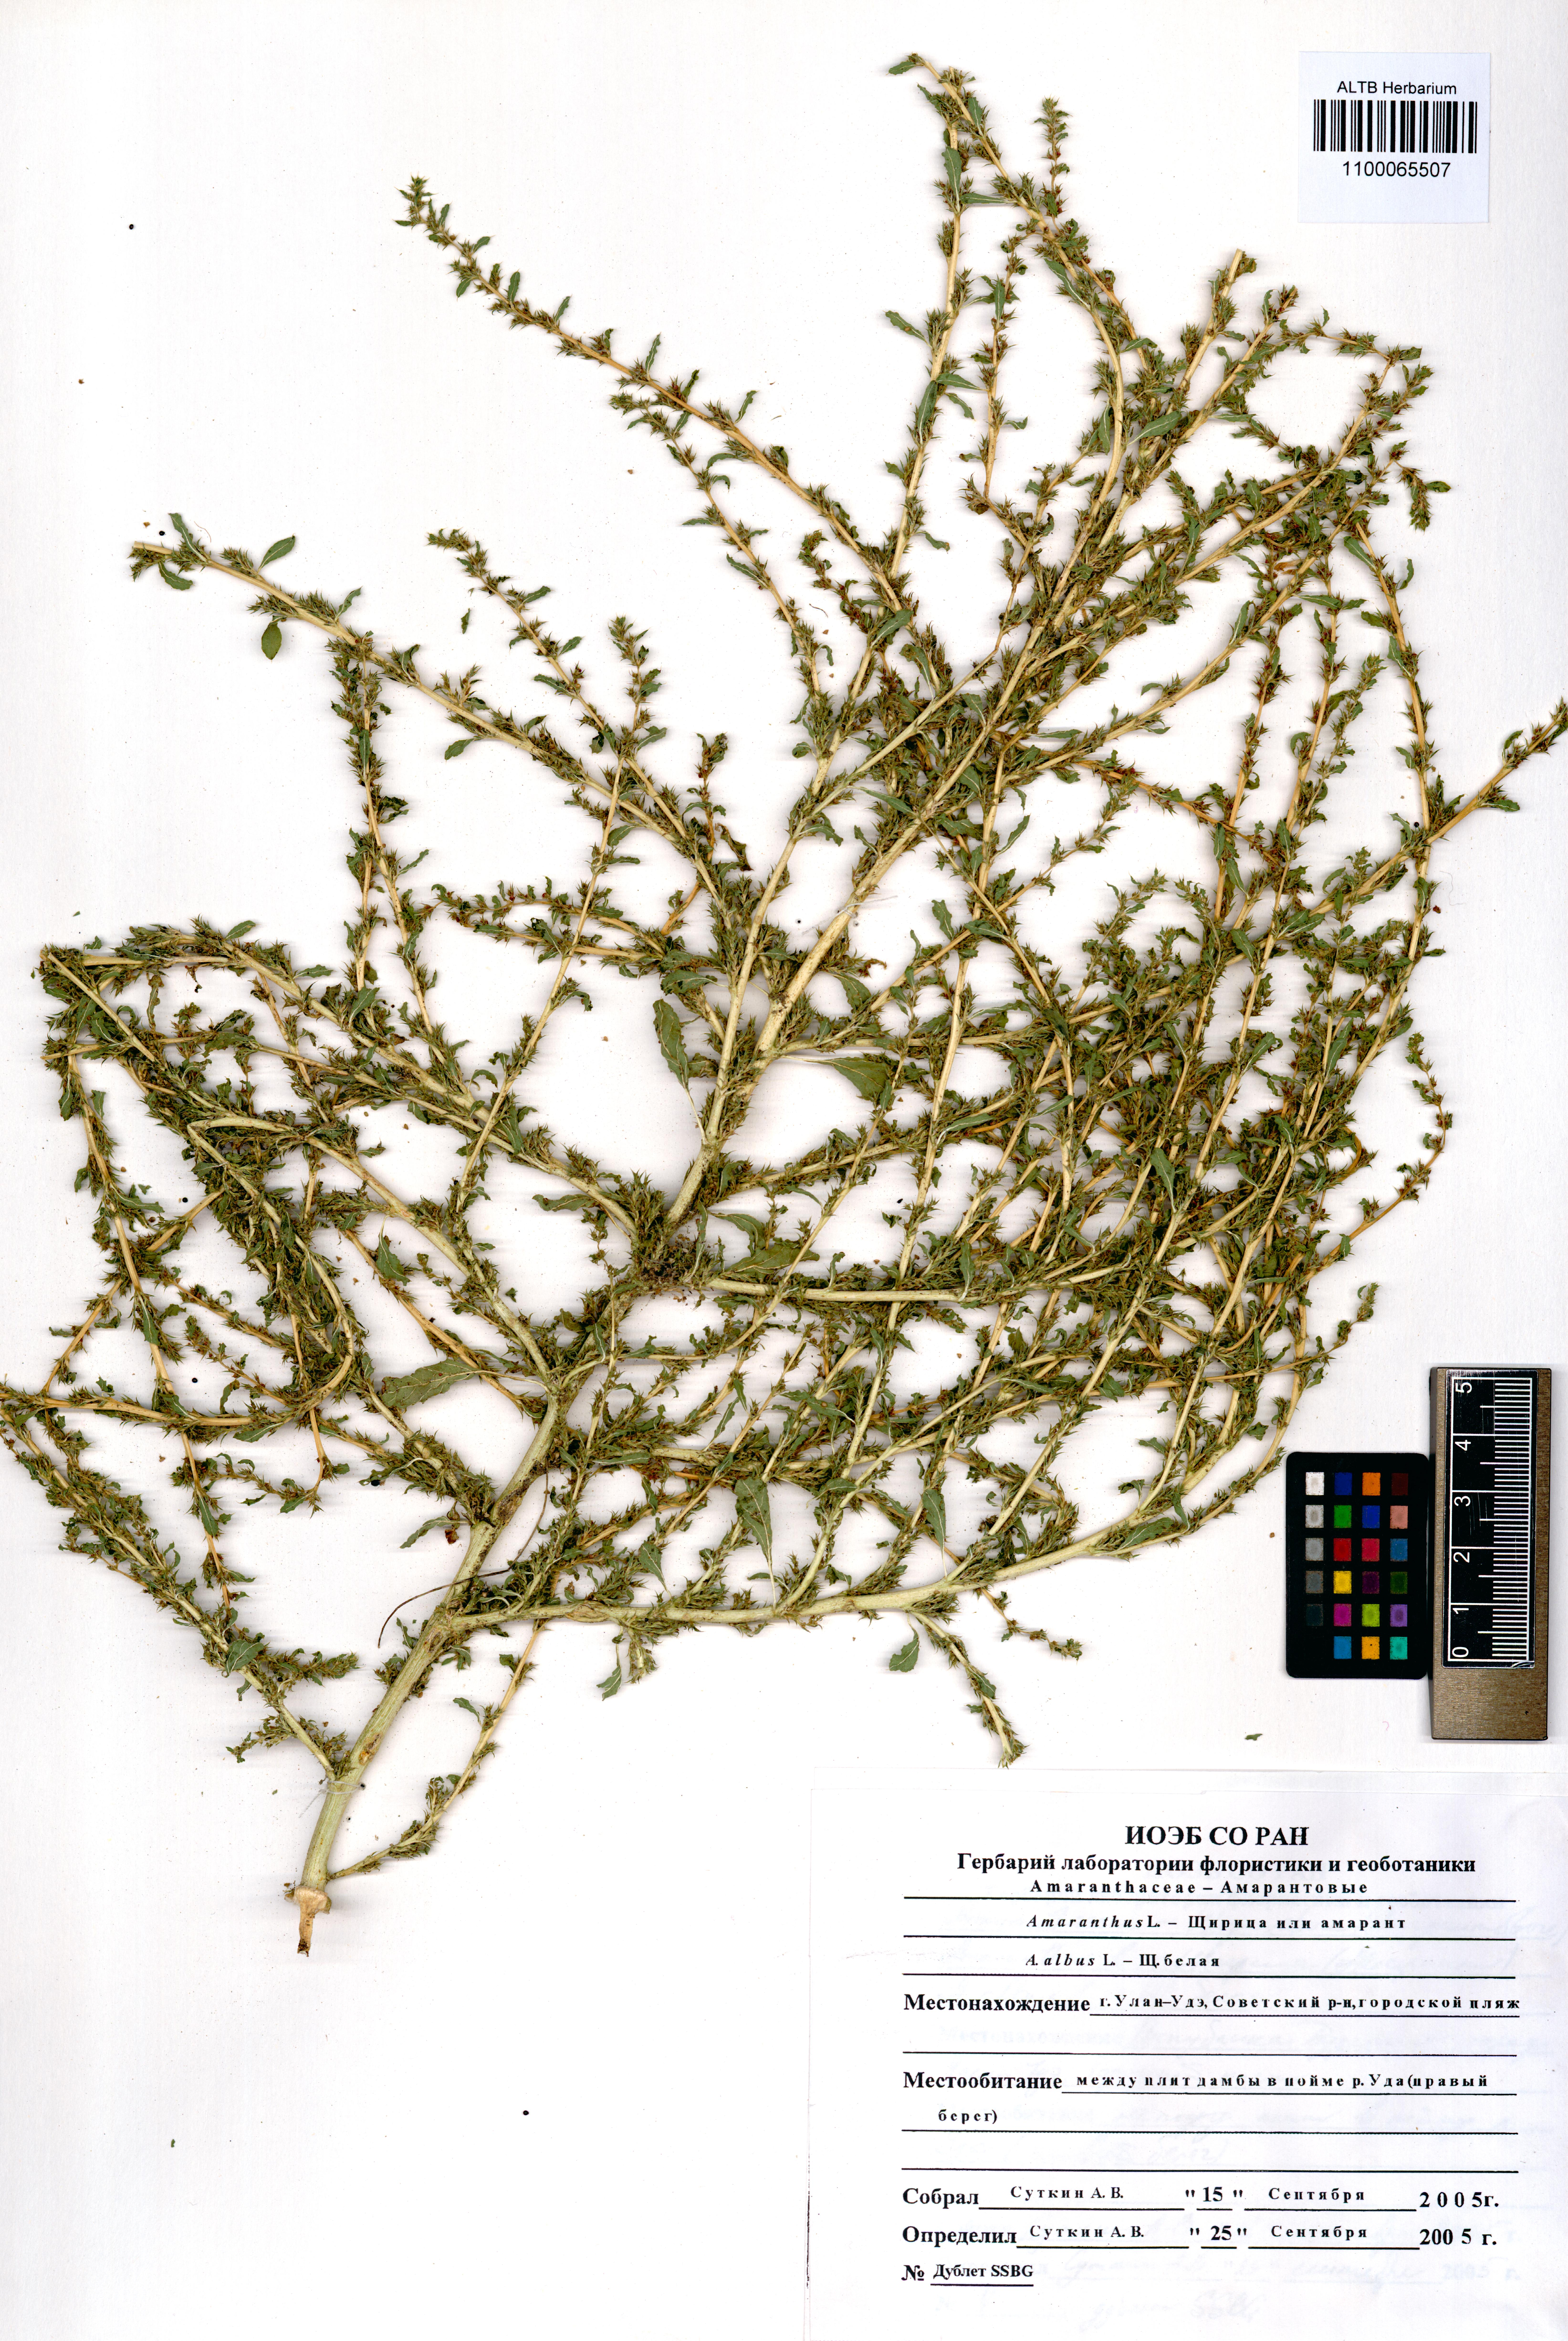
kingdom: Plantae
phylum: Tracheophyta
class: Magnoliopsida
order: Caryophyllales
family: Amaranthaceae
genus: Amaranthus
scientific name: Amaranthus albus
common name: White pigweed
